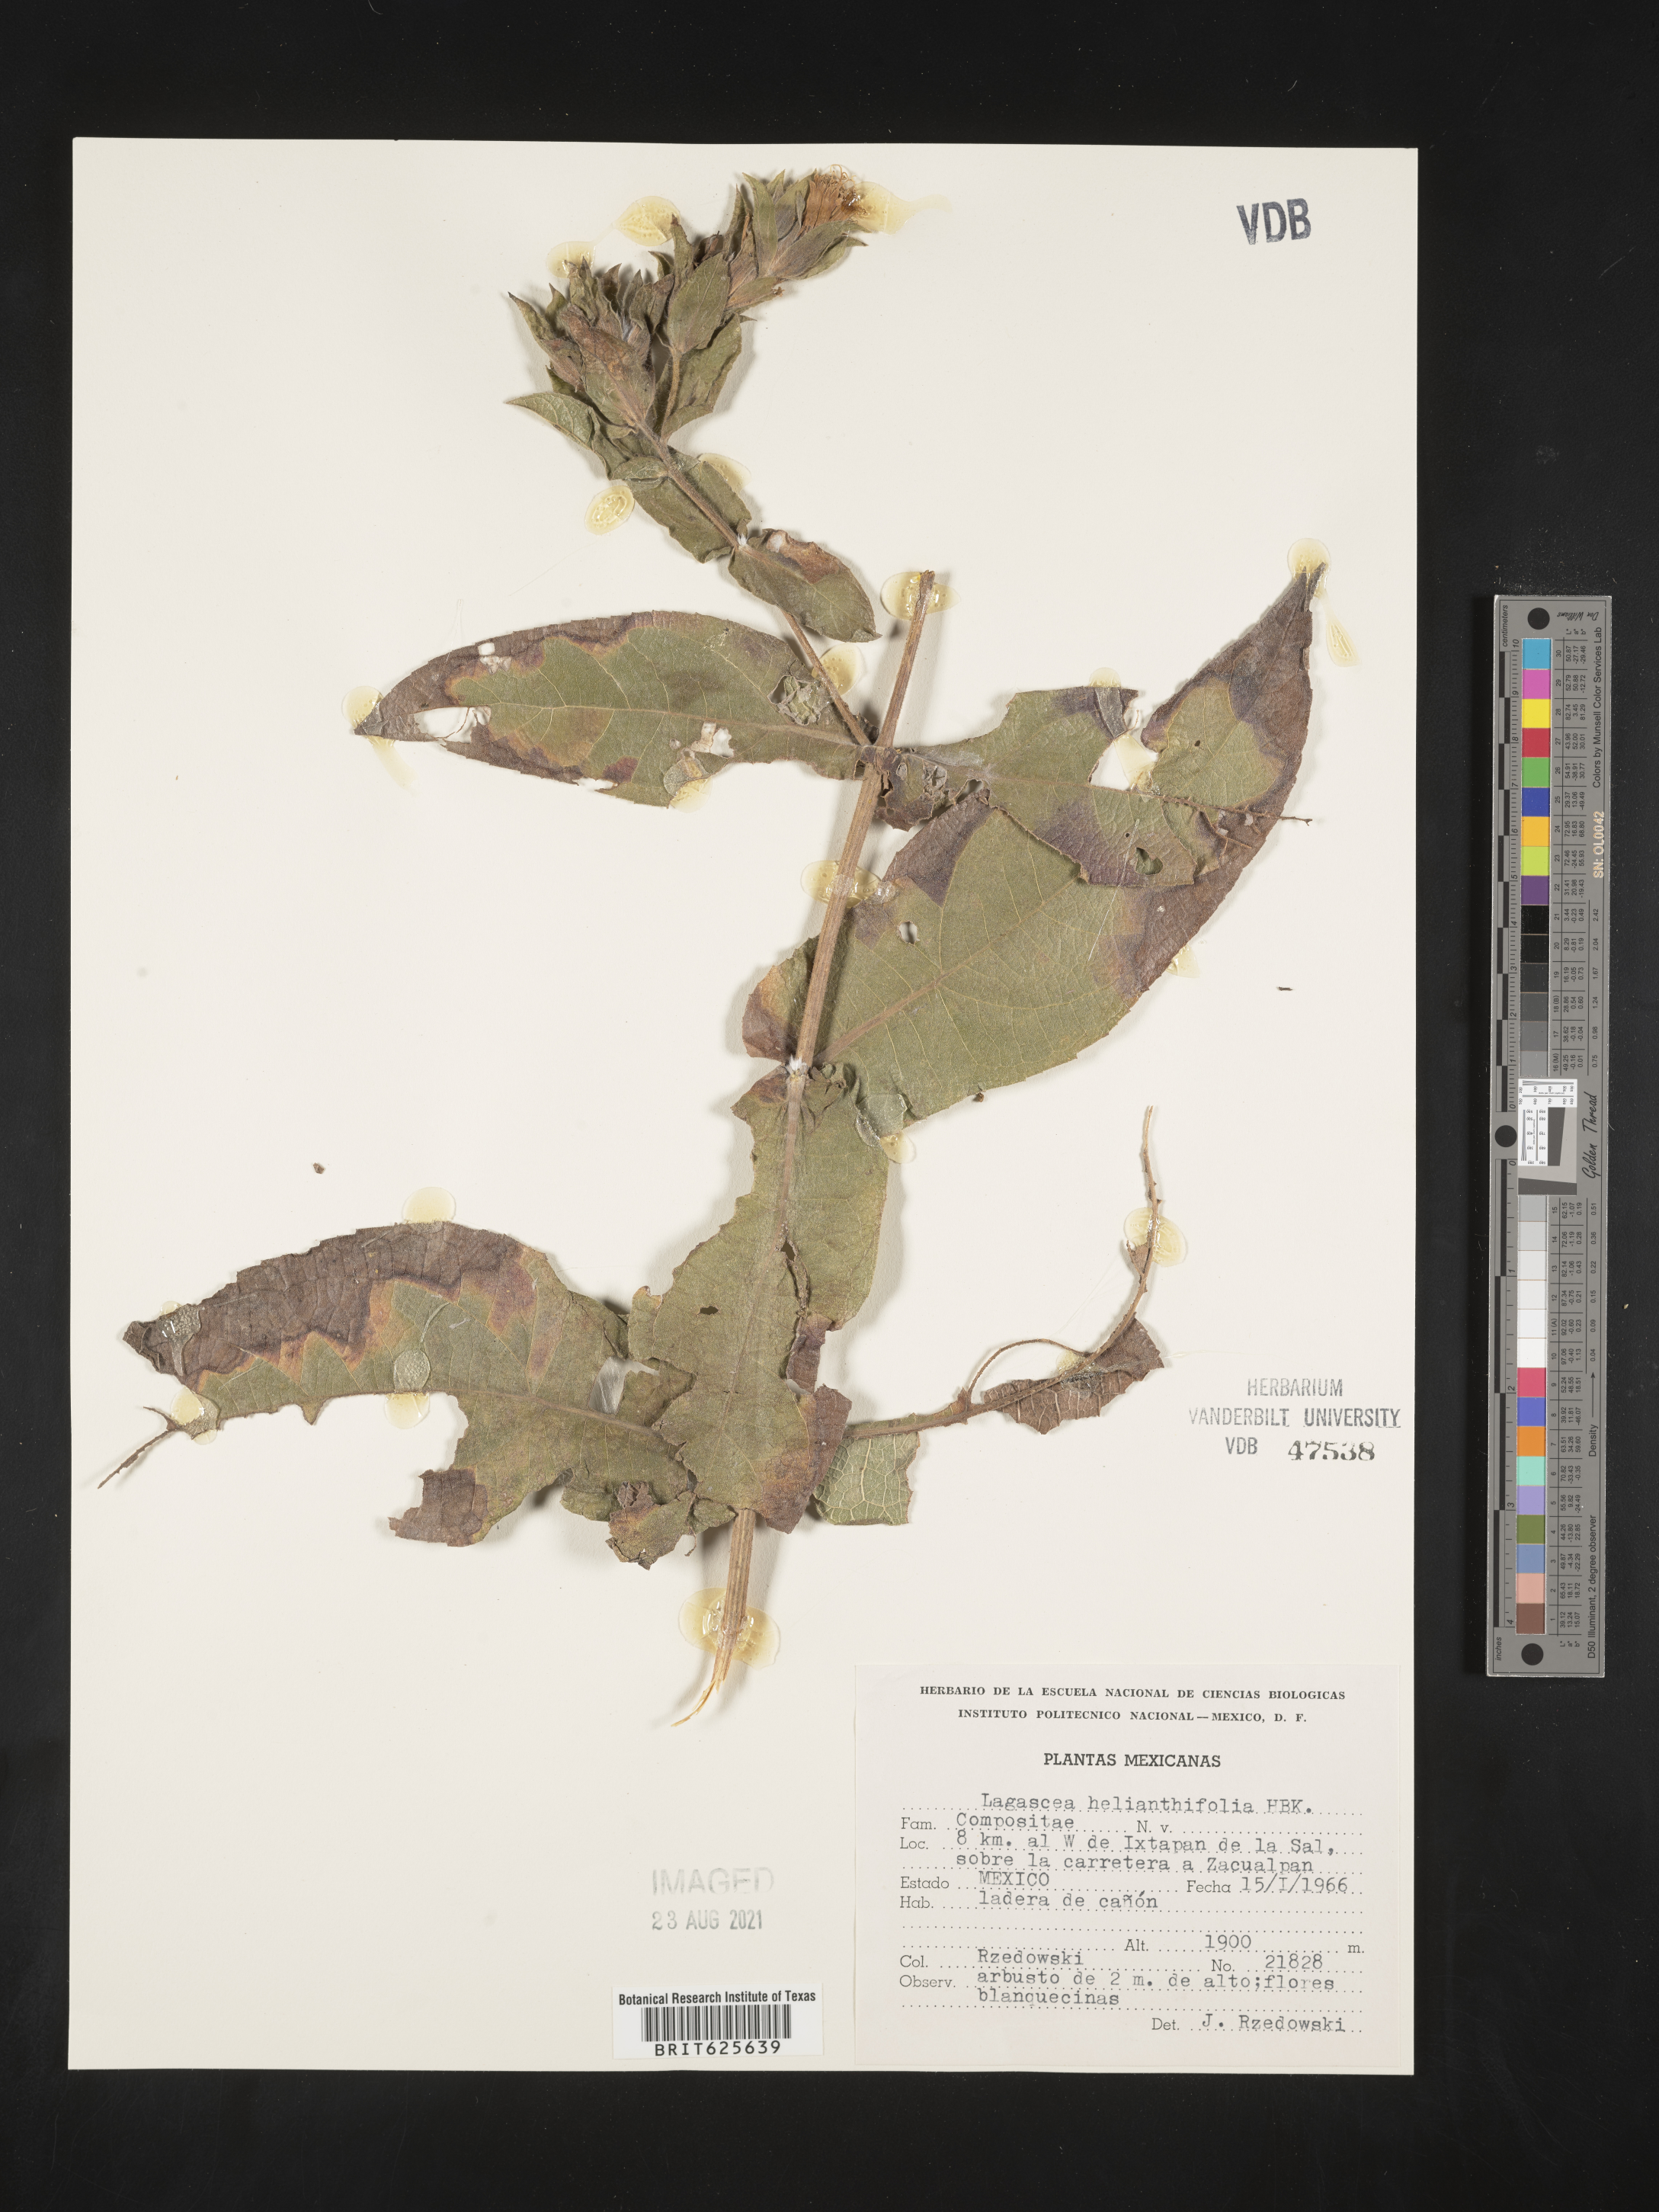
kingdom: Plantae
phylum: Tracheophyta
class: Magnoliopsida
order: Asterales
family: Asteraceae
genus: Lagascea
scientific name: Lagascea
